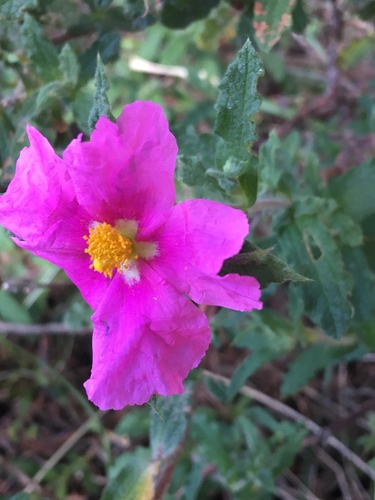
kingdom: Plantae
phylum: Tracheophyta
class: Magnoliopsida
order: Malvales
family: Cistaceae
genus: Cistus
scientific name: Cistus crispus
